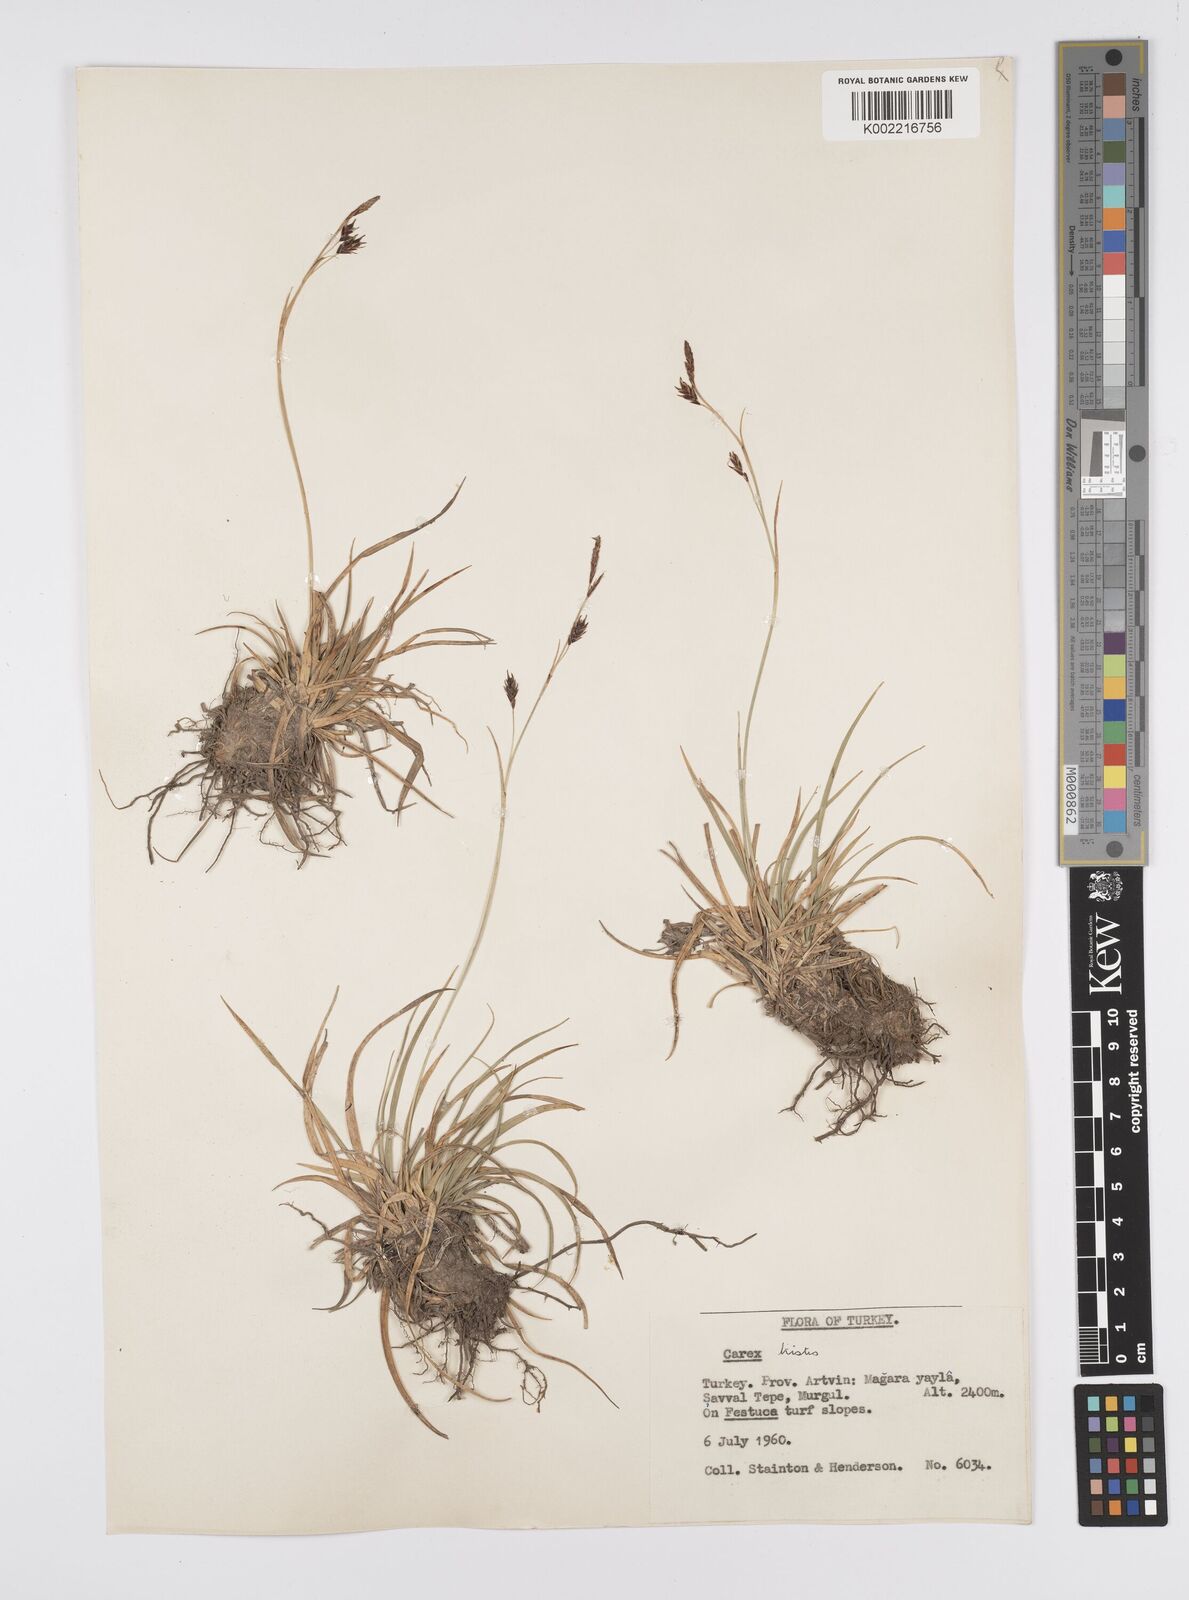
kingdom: Plantae
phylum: Tracheophyta
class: Liliopsida
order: Poales
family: Cyperaceae
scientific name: Cyperaceae
